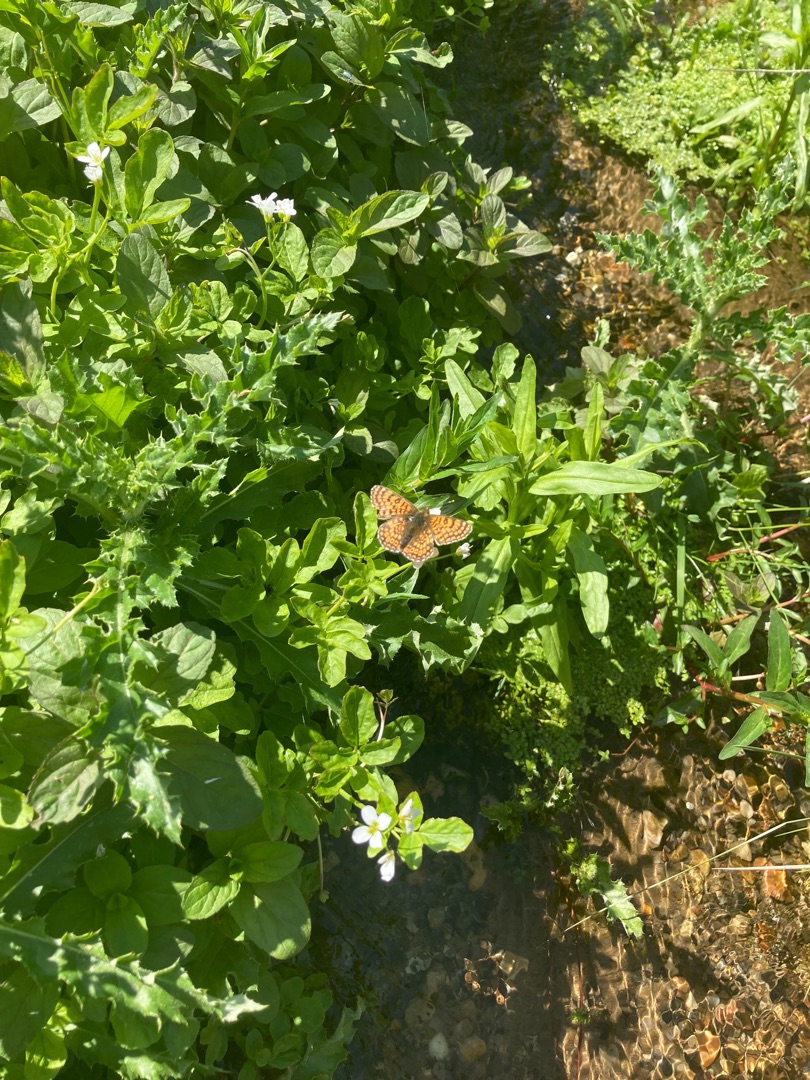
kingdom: Animalia
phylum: Arthropoda
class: Insecta
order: Lepidoptera
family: Nymphalidae
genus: Melitaea
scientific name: Melitaea cinxia
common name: Okkergul pletvinge
